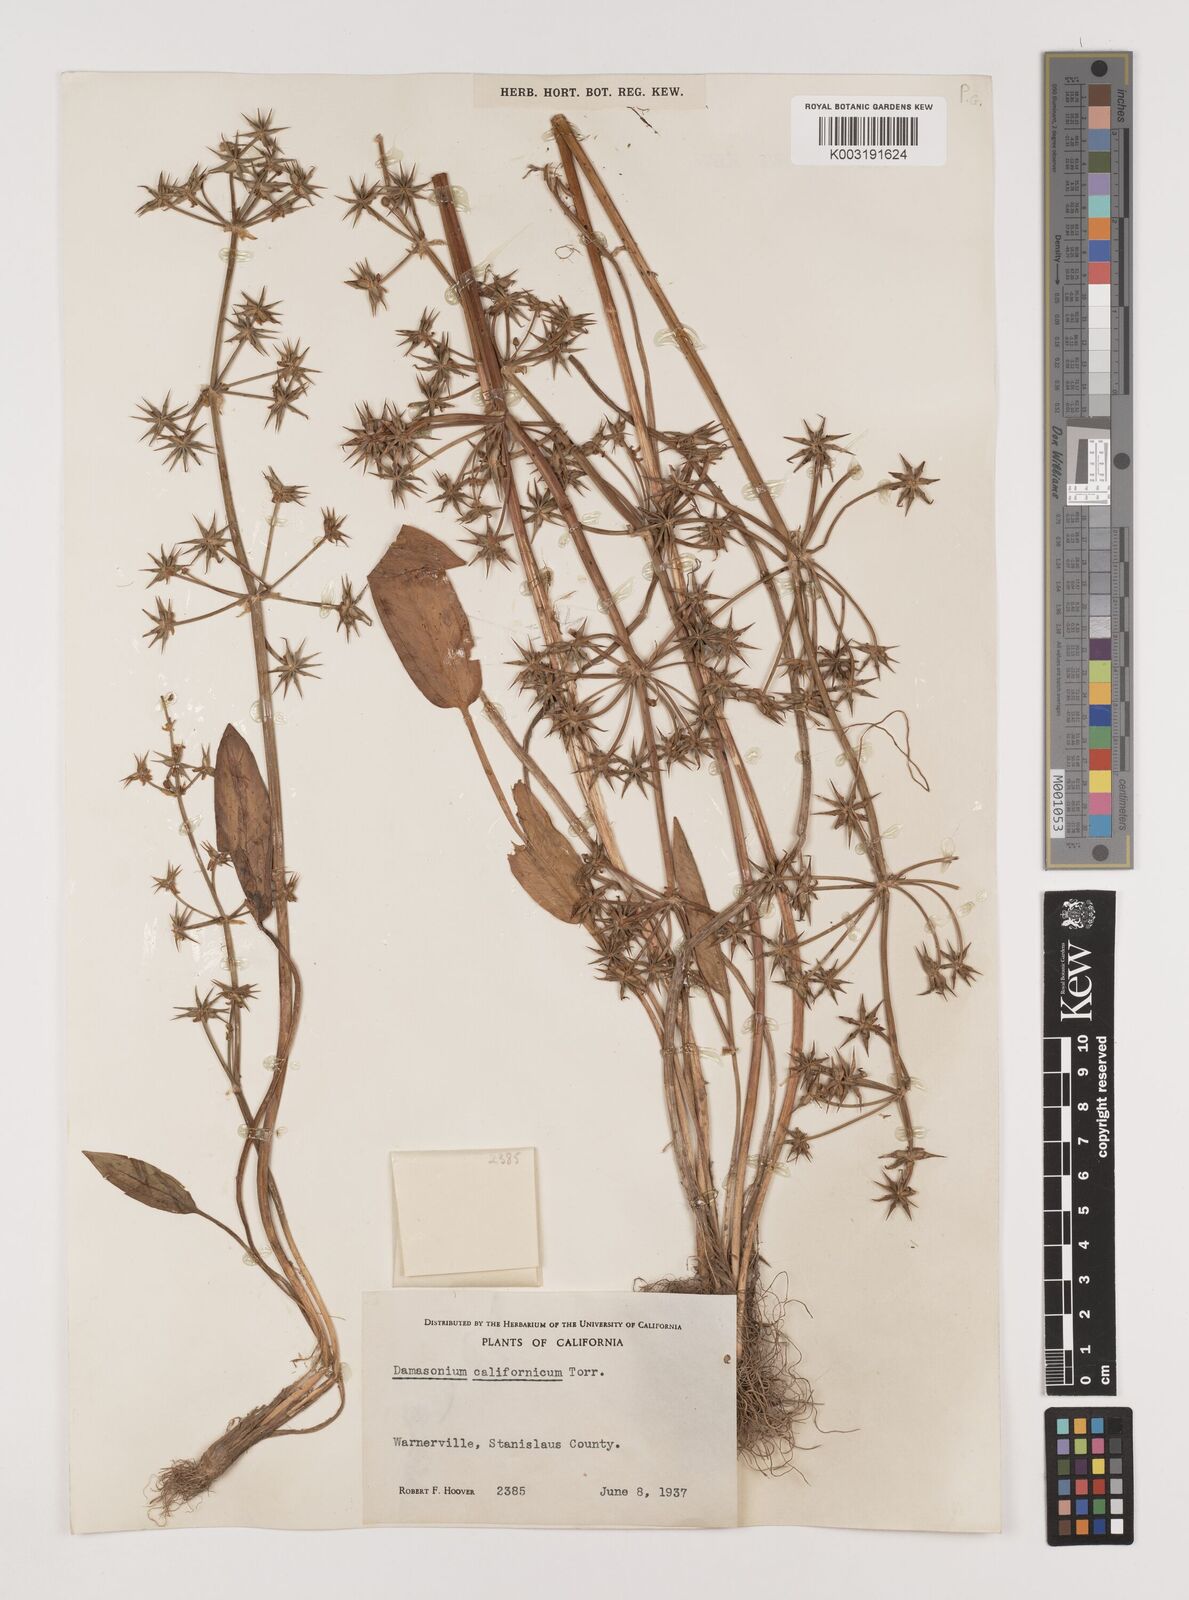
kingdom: Plantae
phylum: Tracheophyta
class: Liliopsida
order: Alismatales
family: Alismataceae
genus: Damasonium
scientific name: Damasonium
